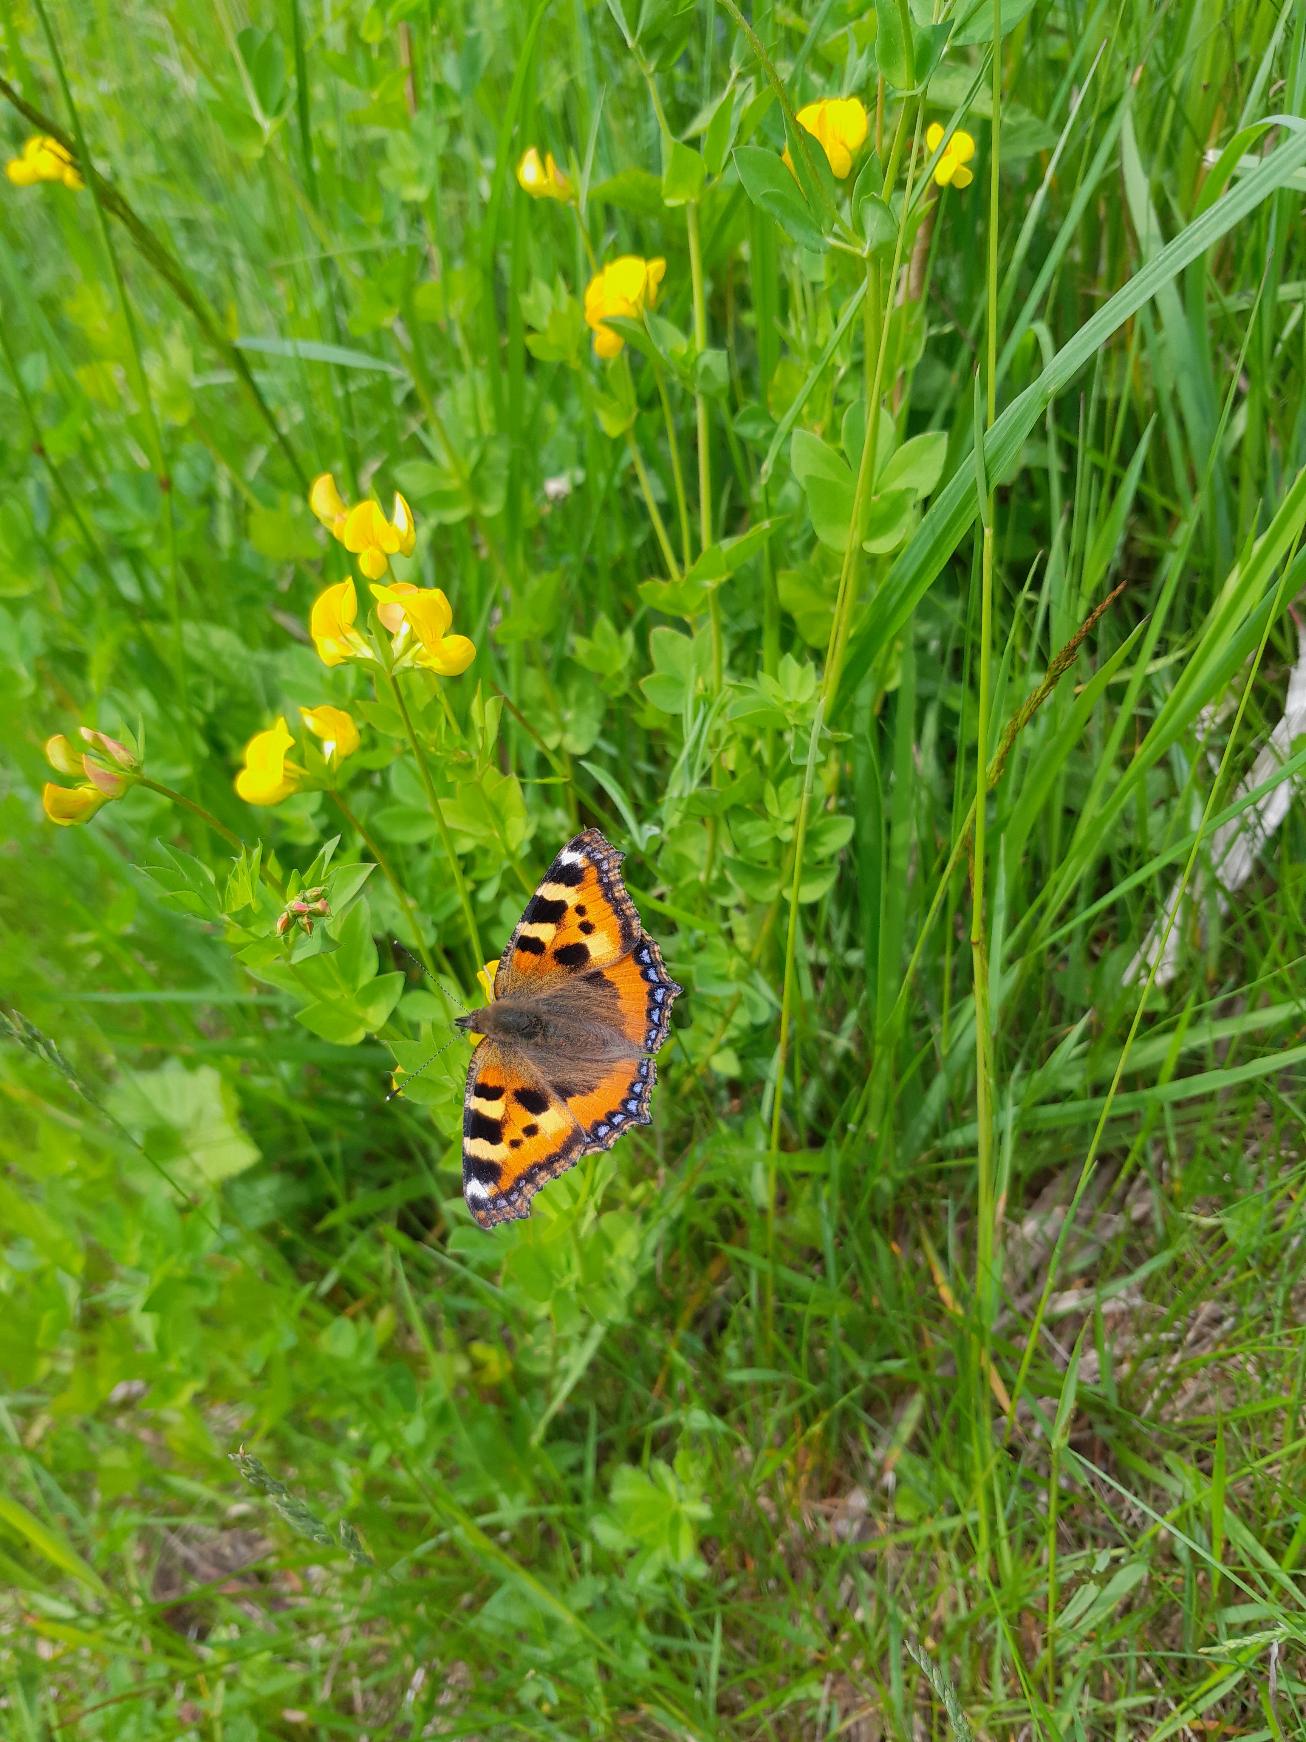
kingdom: Animalia
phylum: Arthropoda
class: Insecta
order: Lepidoptera
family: Nymphalidae
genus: Aglais
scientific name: Aglais urticae
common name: Nældens takvinge
